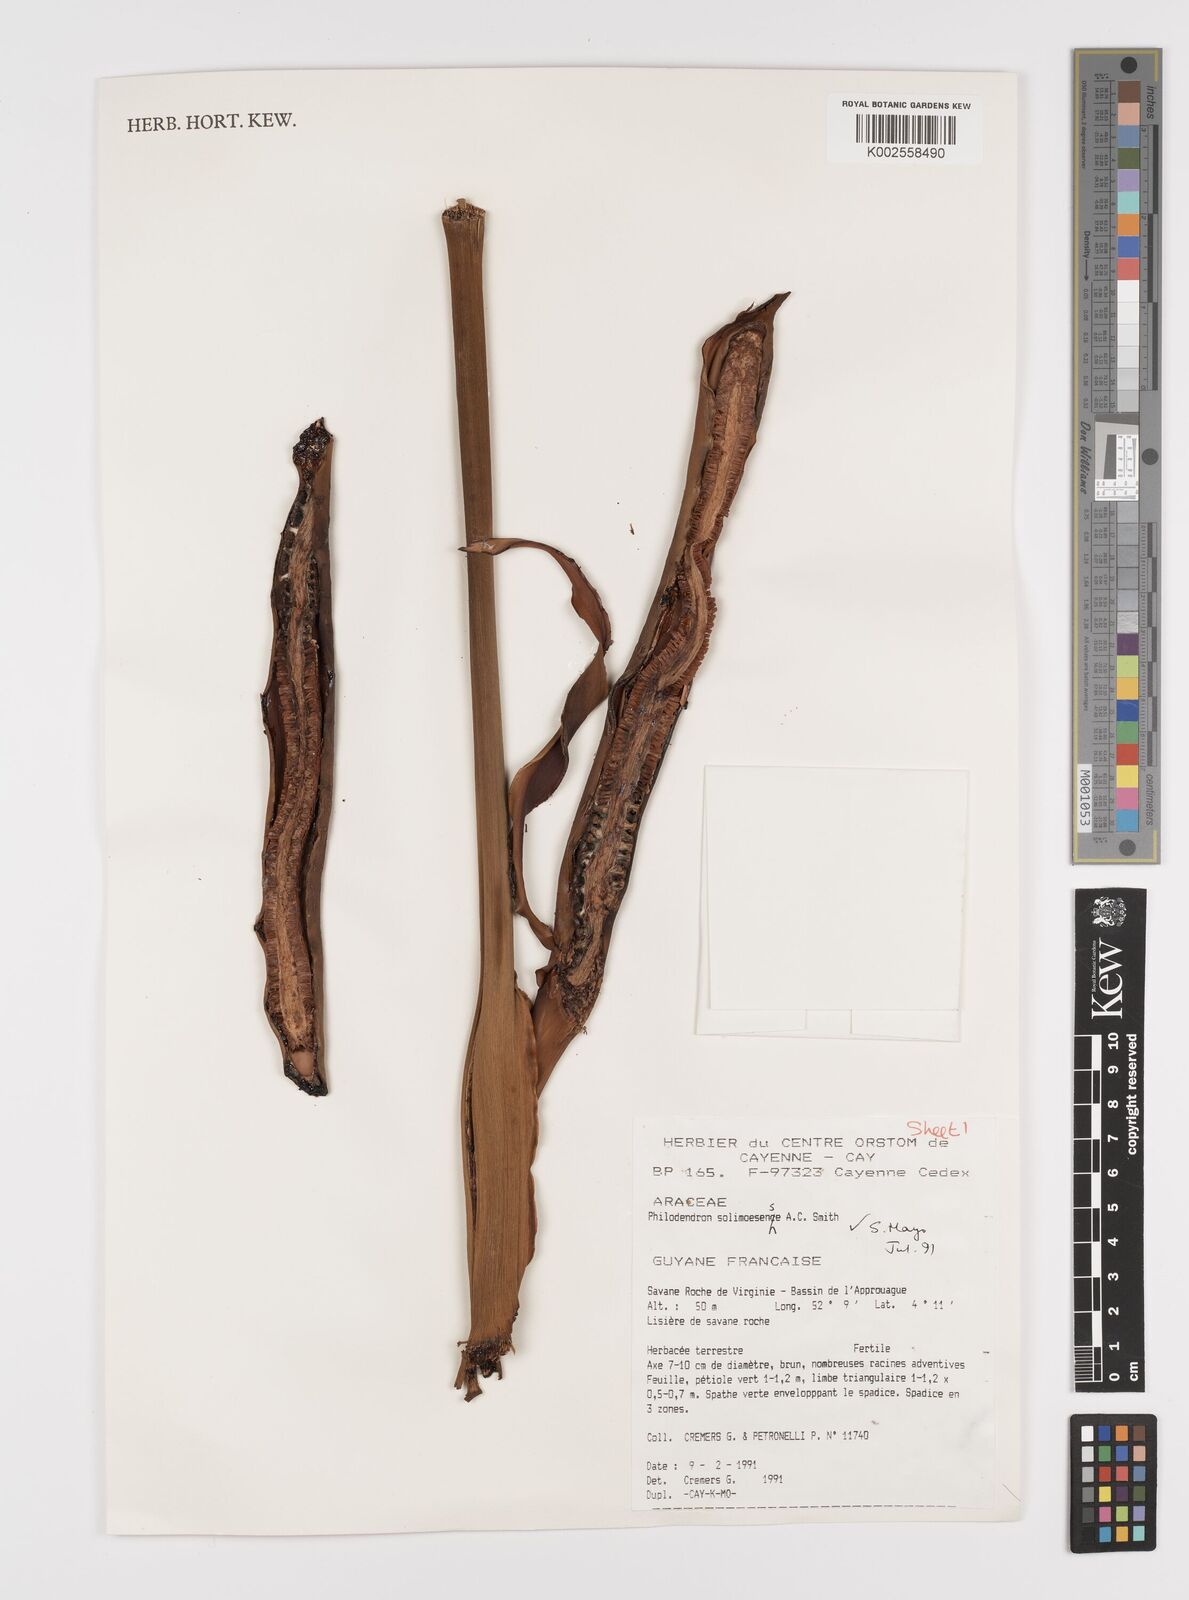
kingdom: Plantae
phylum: Tracheophyta
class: Liliopsida
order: Alismatales
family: Araceae
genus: Thaumatophyllum
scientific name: Thaumatophyllum solimoesense
